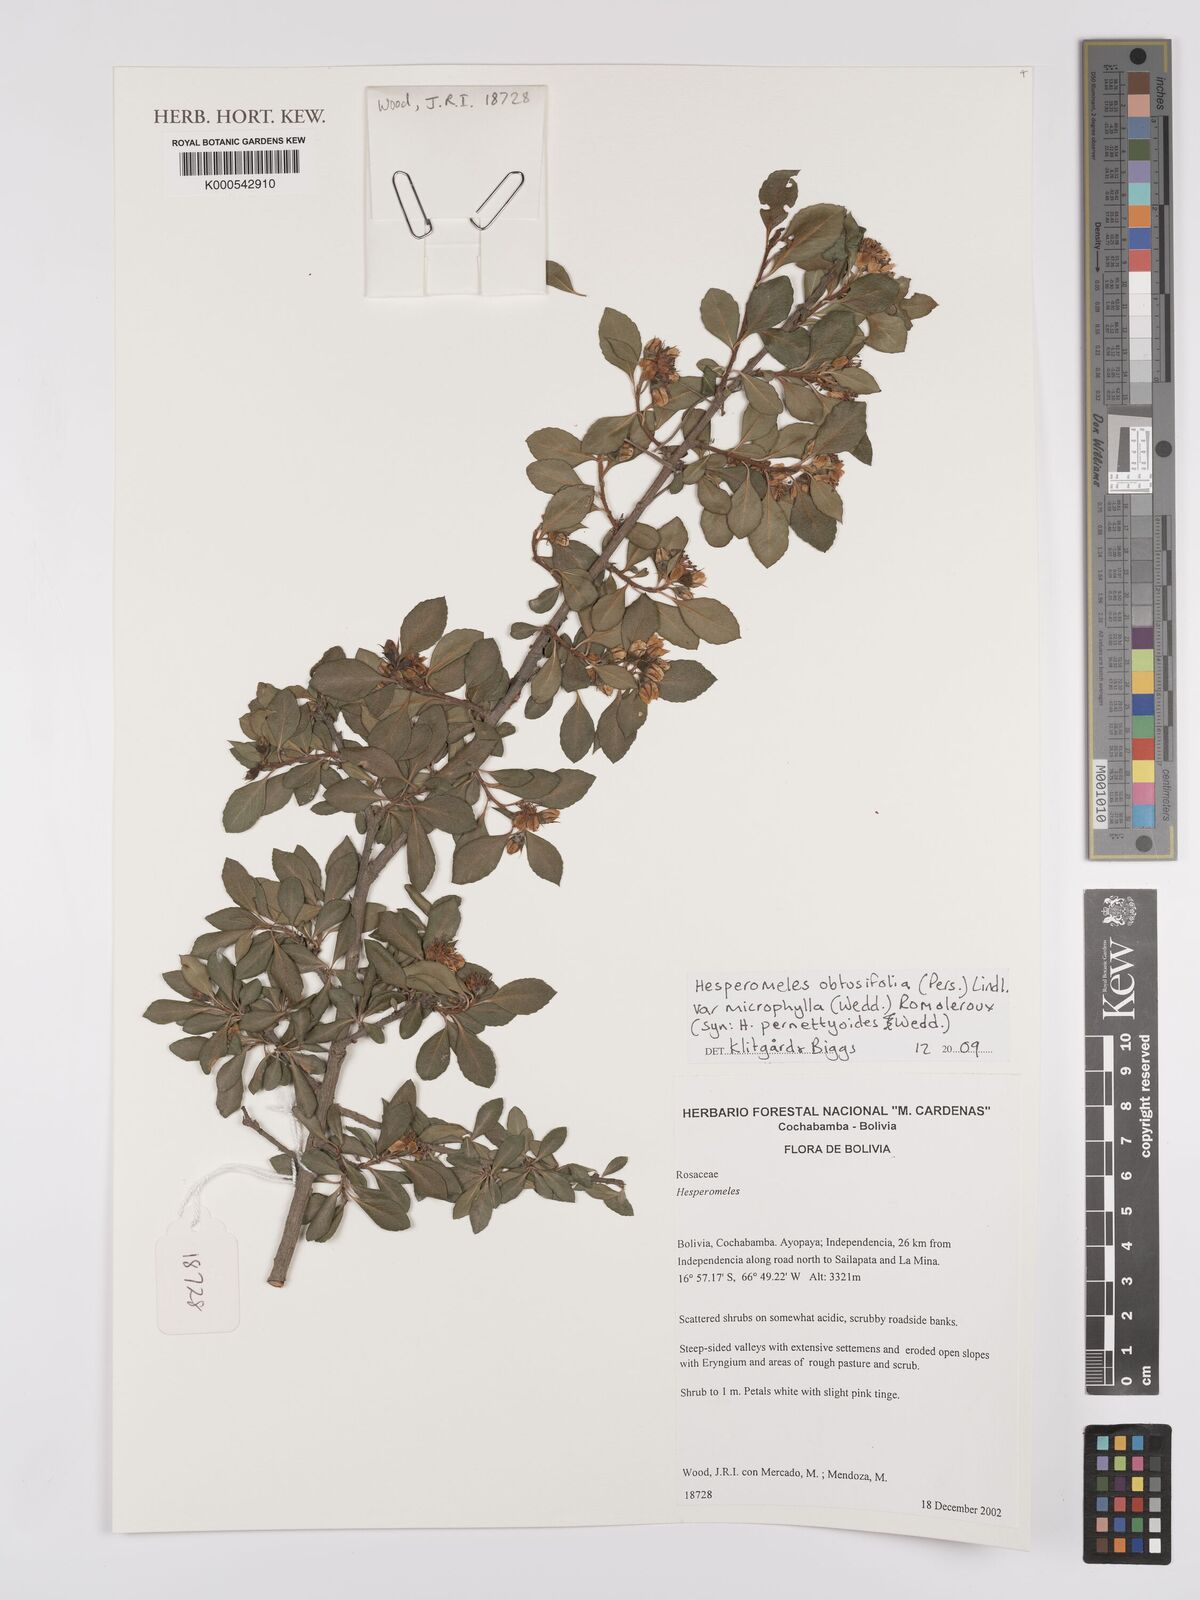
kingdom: Plantae
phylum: Tracheophyta
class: Magnoliopsida
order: Rosales
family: Rosaceae
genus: Hesperomeles
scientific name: Hesperomeles obtusifolia
